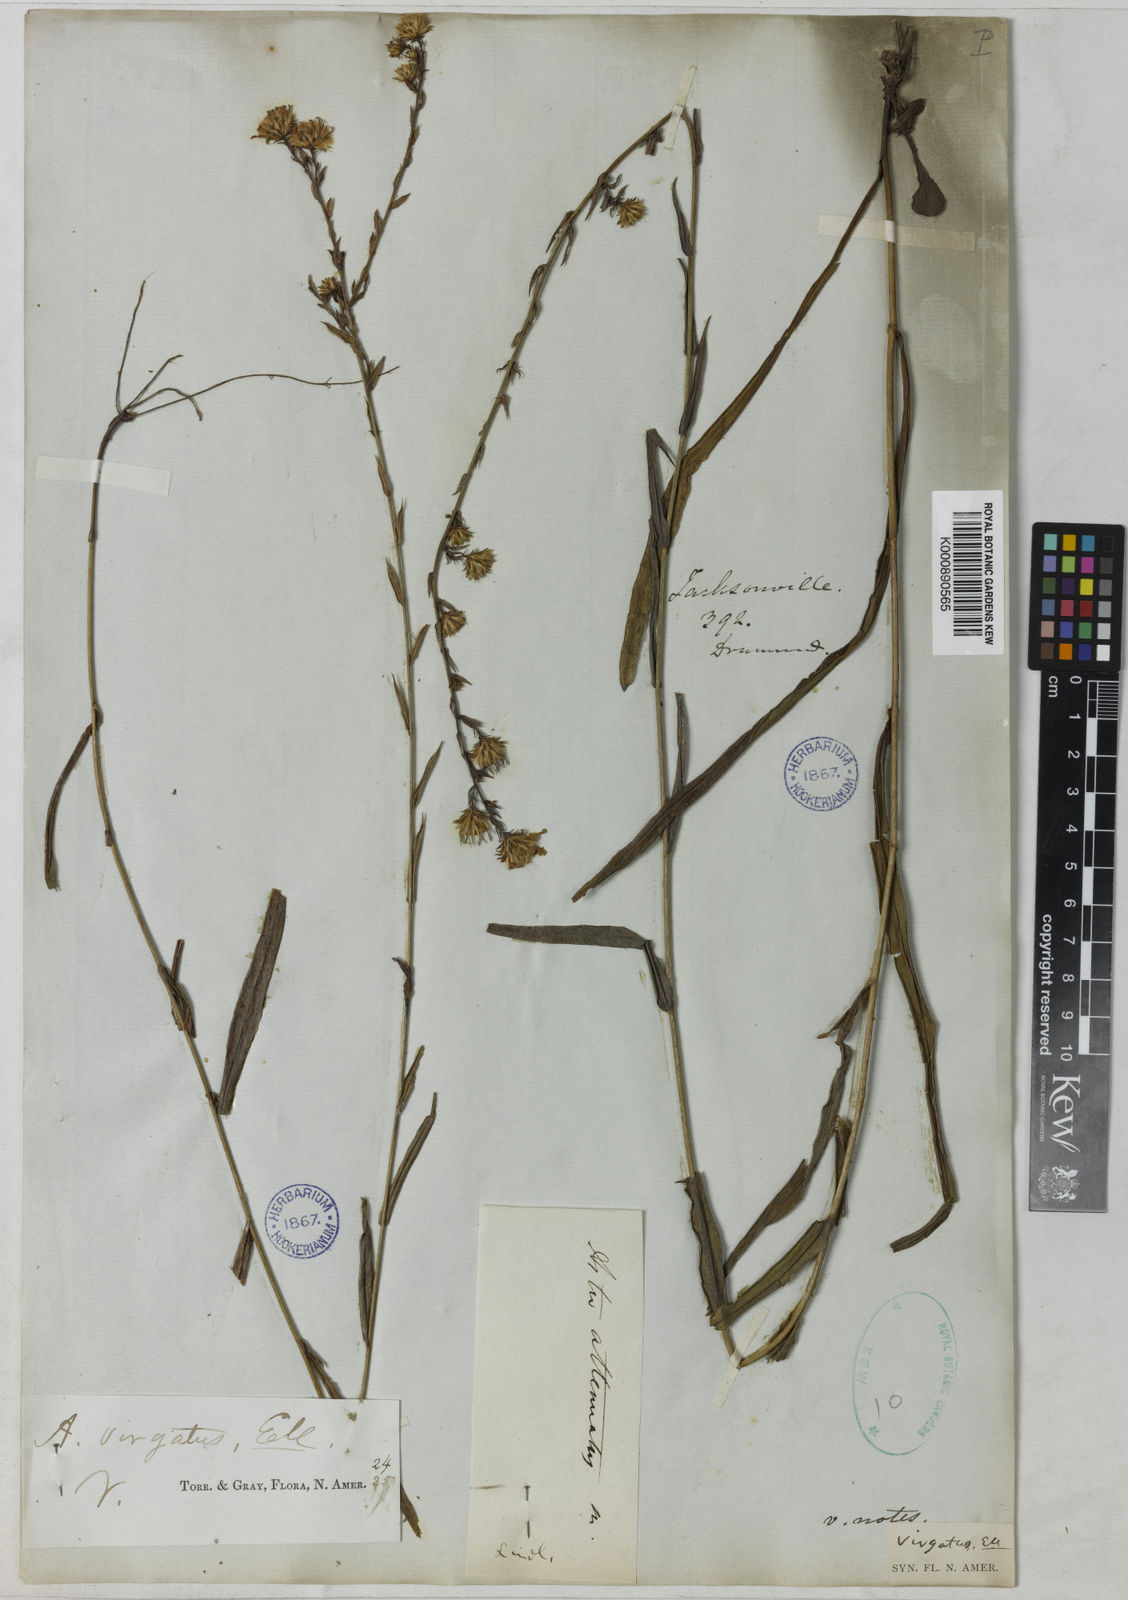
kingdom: Plantae
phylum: Tracheophyta
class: Magnoliopsida
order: Asterales
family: Asteraceae
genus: Symphyotrichum
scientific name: Symphyotrichum patens
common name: Late purple aster
